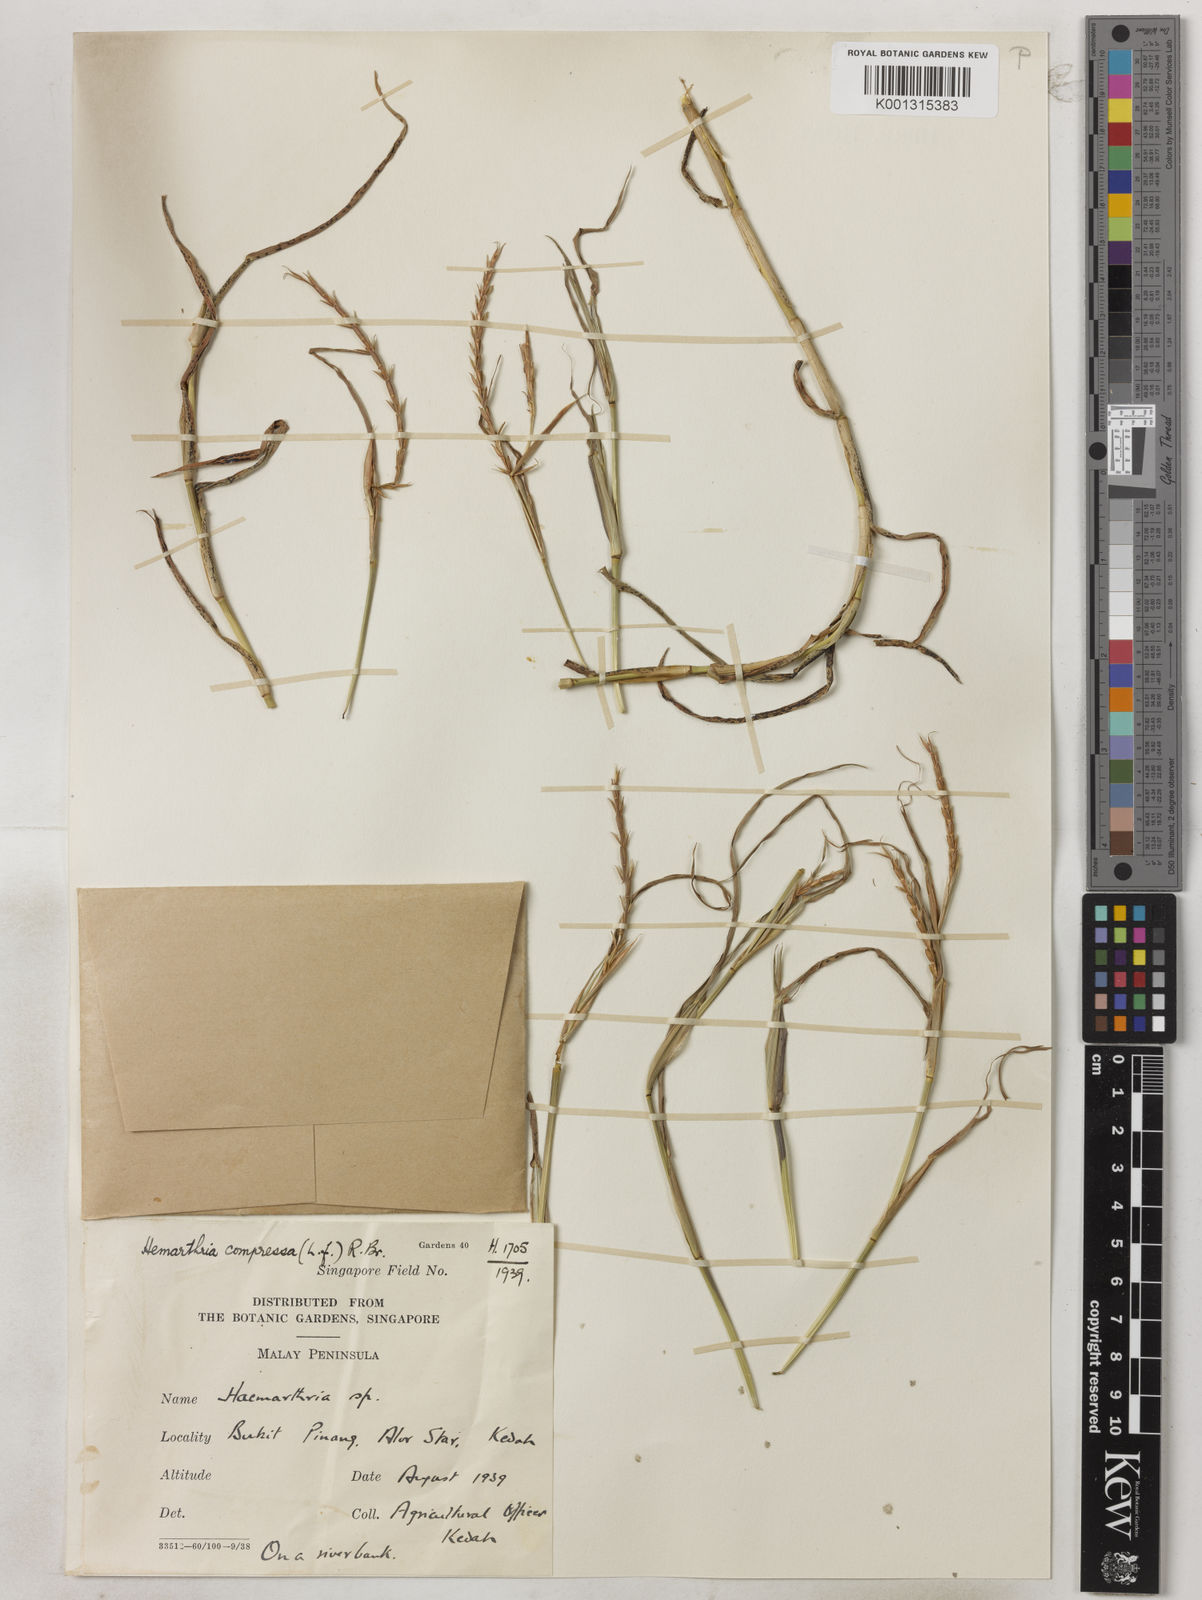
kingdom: Plantae
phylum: Tracheophyta
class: Liliopsida
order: Poales
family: Poaceae
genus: Hemarthria
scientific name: Hemarthria compressa
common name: Whip grass
